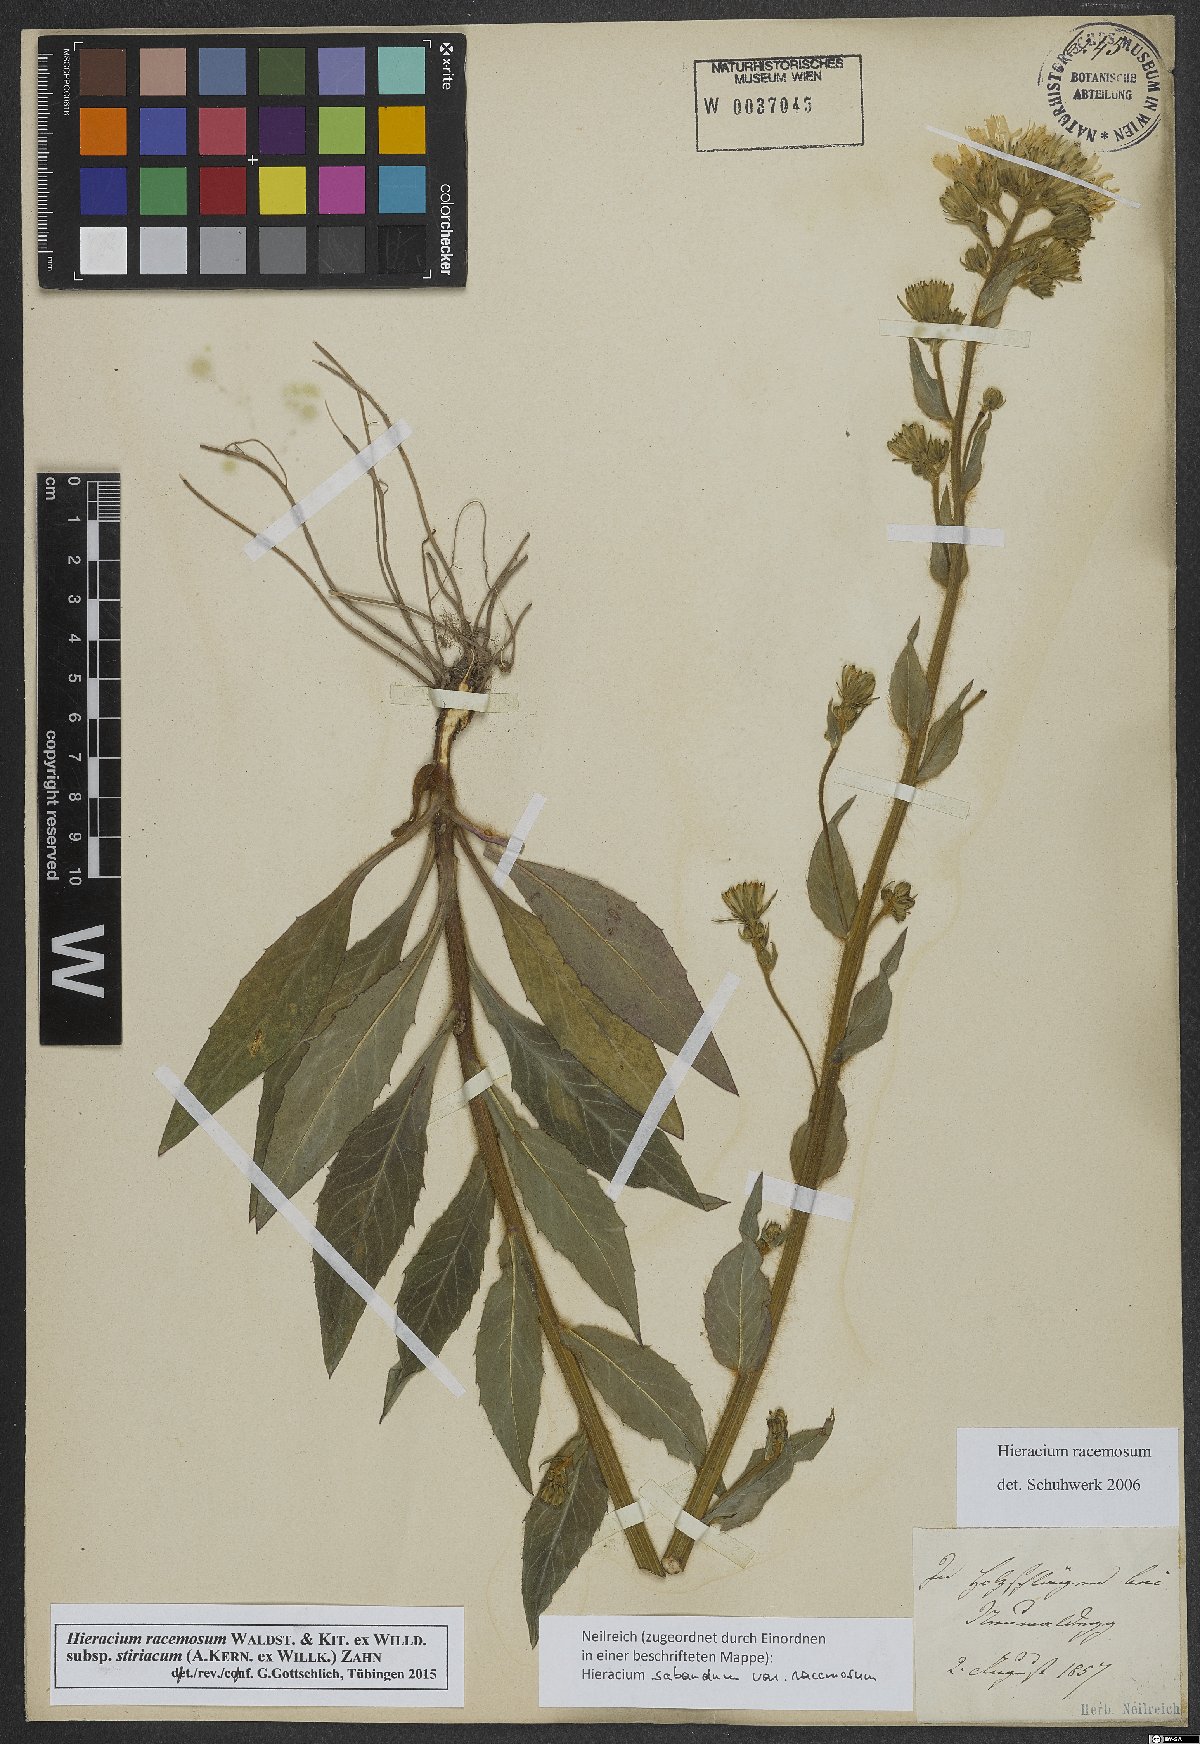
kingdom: Plantae
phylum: Tracheophyta
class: Magnoliopsida
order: Asterales
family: Asteraceae
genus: Hieracium
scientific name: Hieracium racemosum
